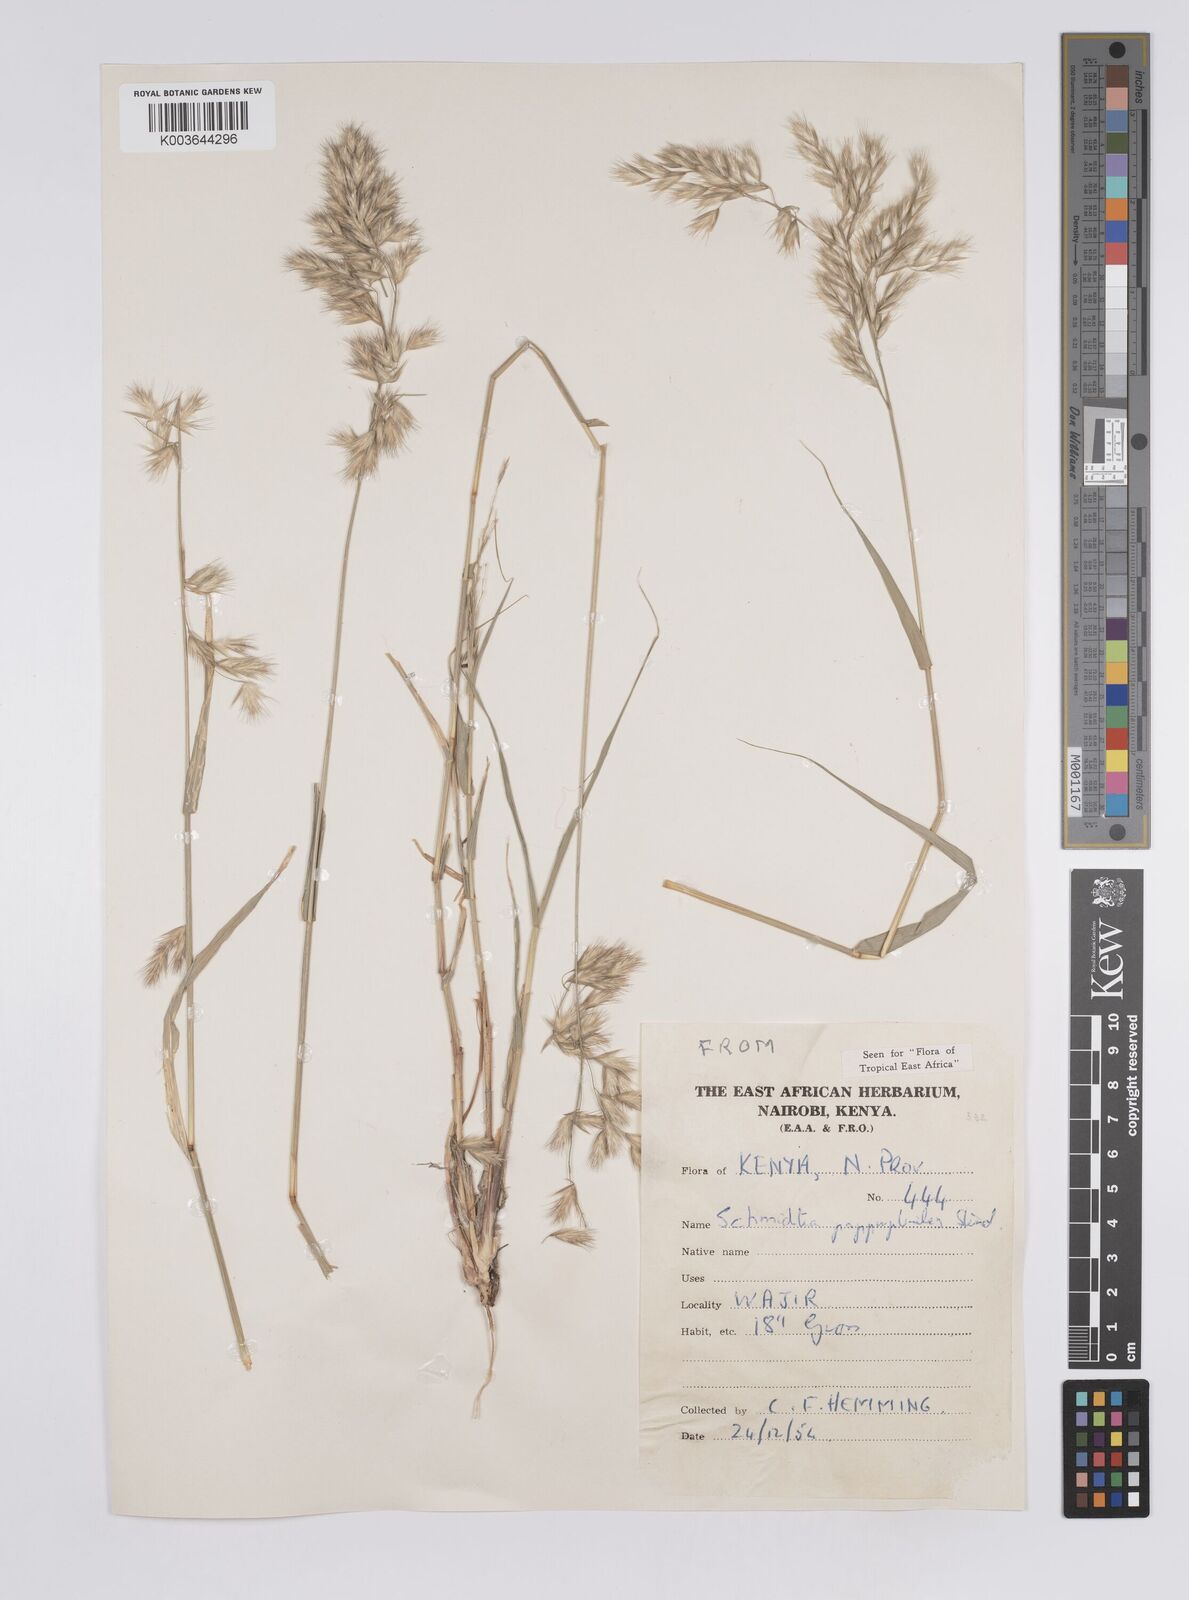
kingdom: Plantae
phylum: Tracheophyta
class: Liliopsida
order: Poales
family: Poaceae
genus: Schmidtia
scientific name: Schmidtia pappophoroides
